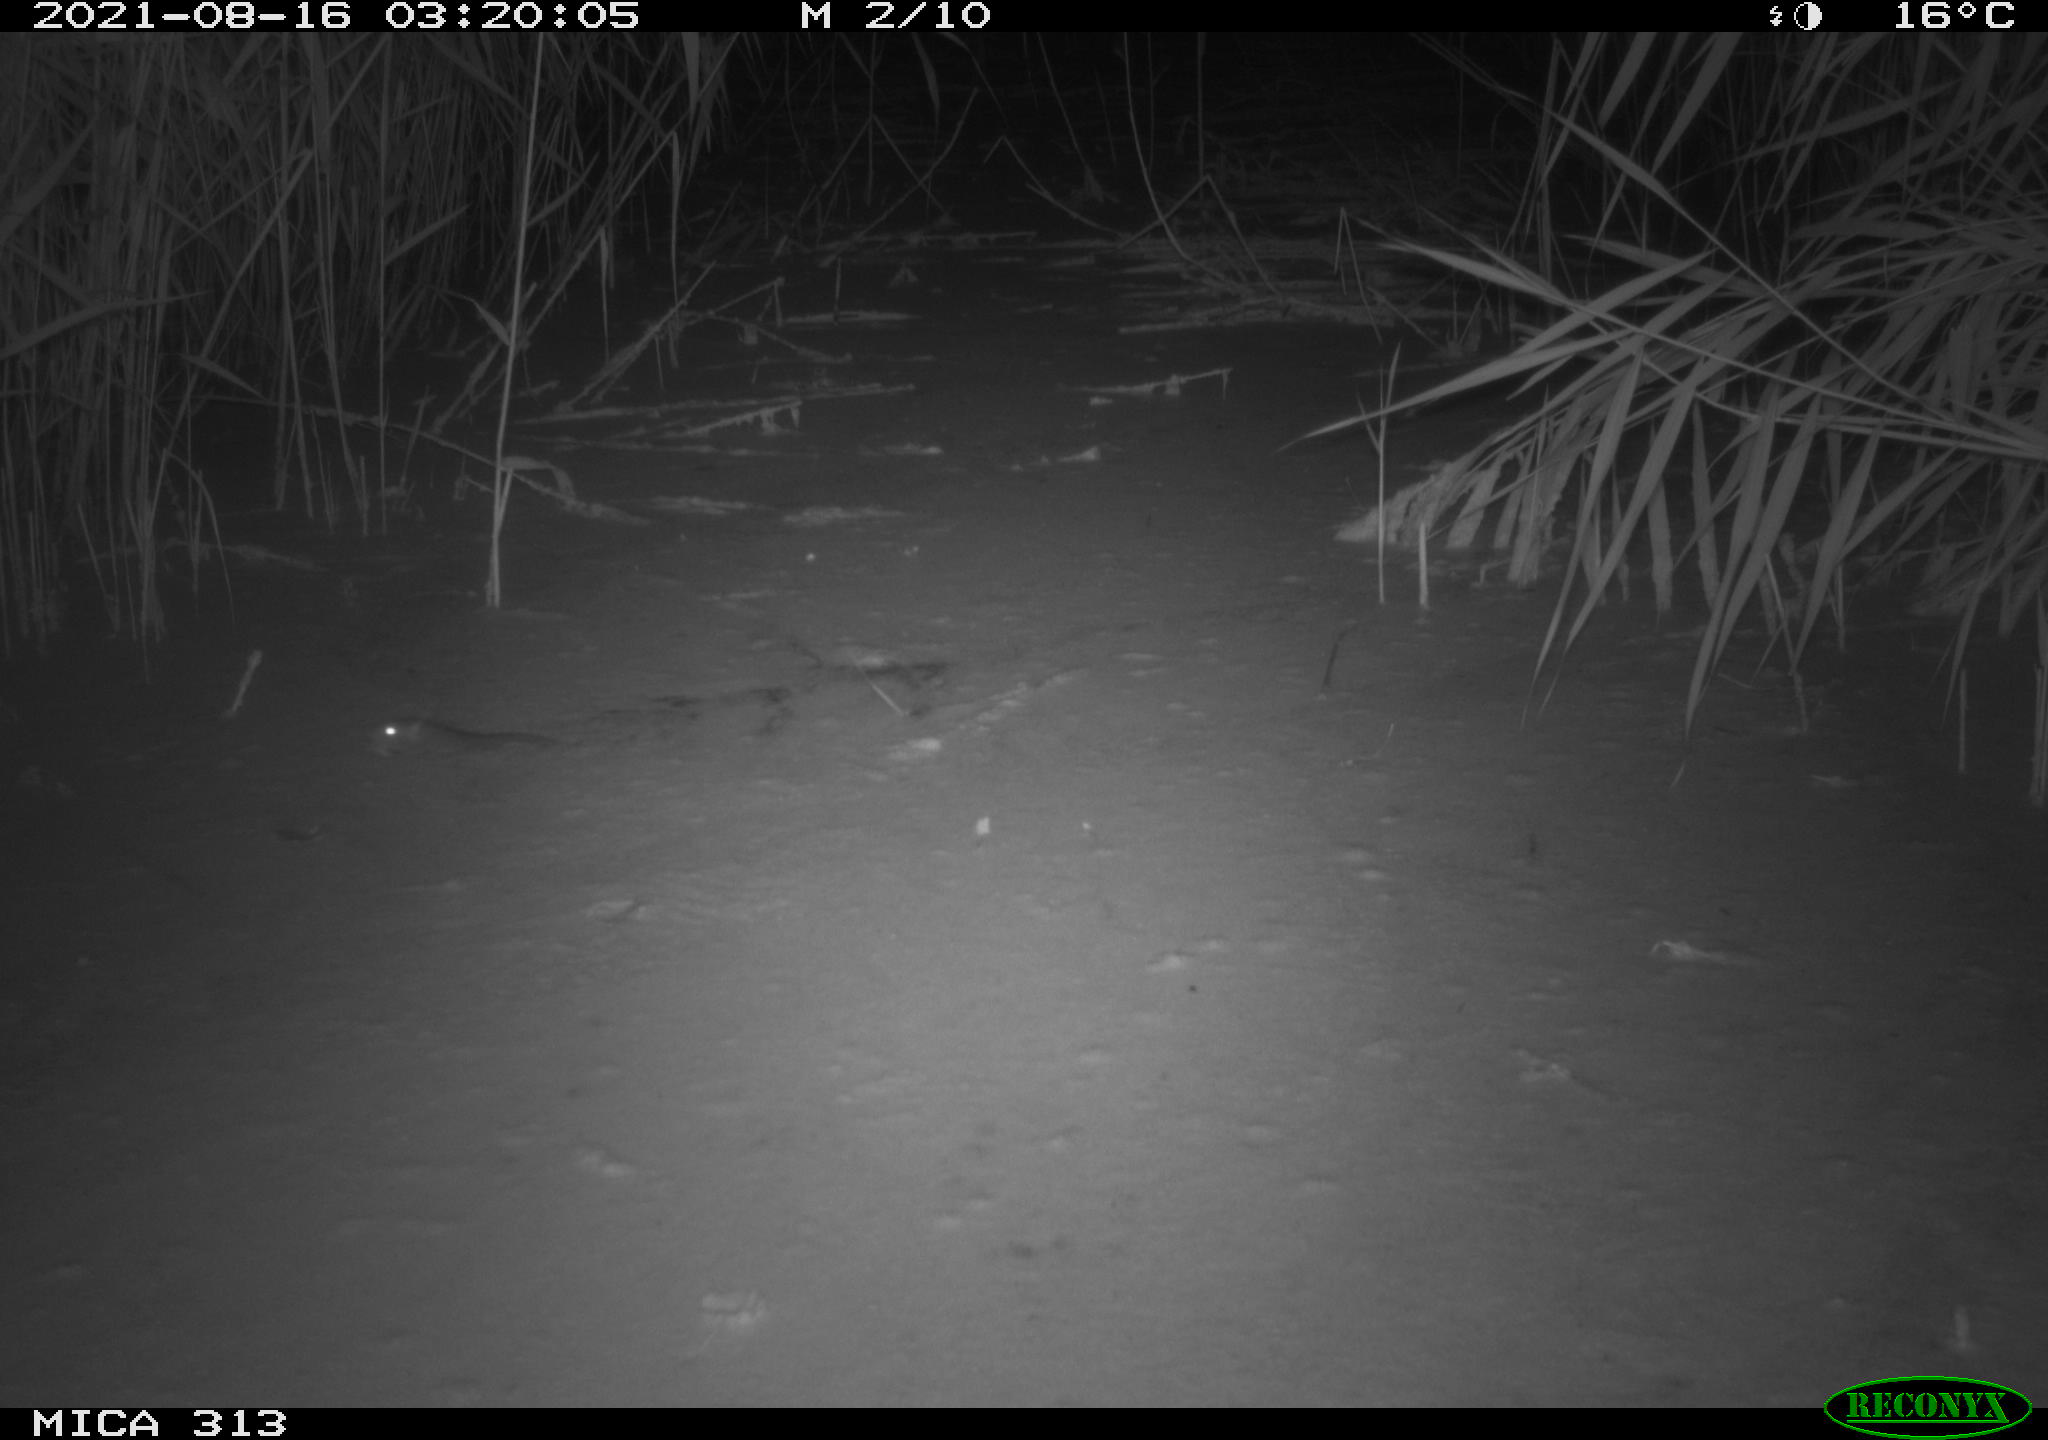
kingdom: Animalia
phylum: Chordata
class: Mammalia
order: Rodentia
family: Muridae
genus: Rattus
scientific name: Rattus norvegicus
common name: Brown rat
